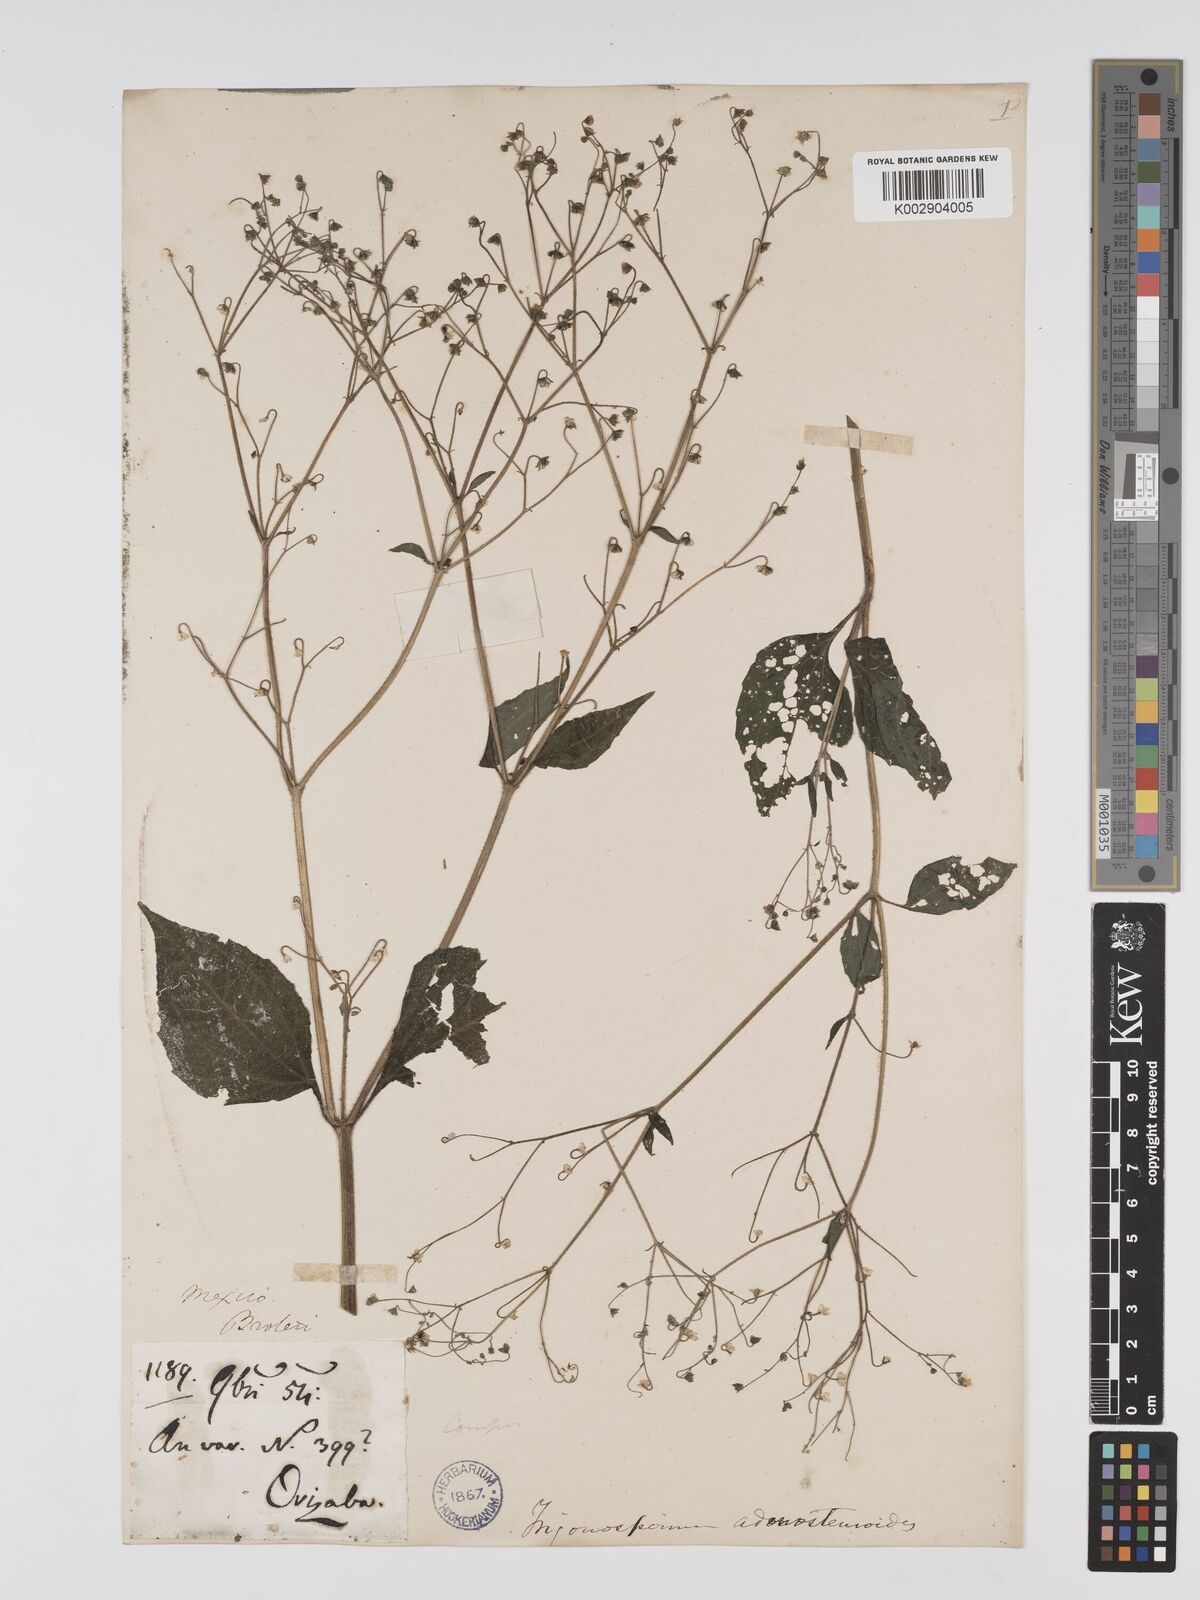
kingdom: Plantae
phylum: Tracheophyta
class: Magnoliopsida
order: Asterales
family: Asteraceae
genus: Trigonospermum
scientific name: Trigonospermum adenostemmoides
